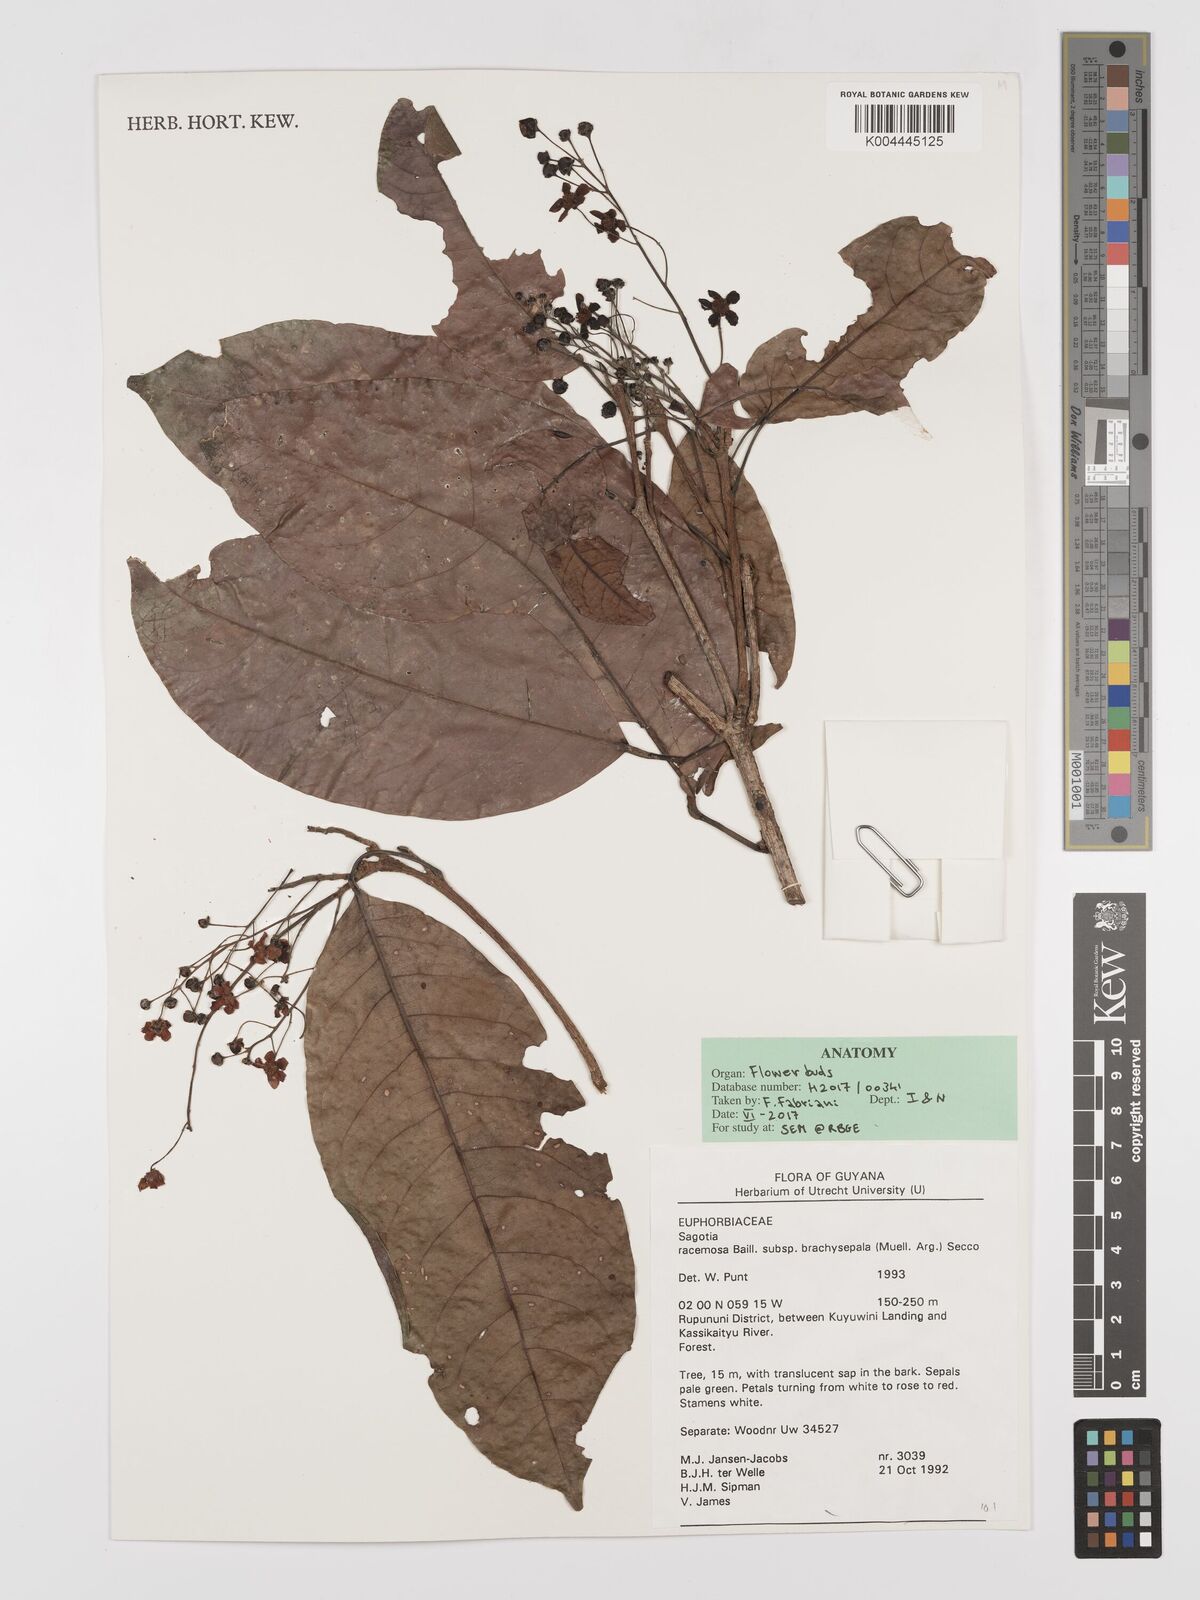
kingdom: Plantae
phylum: Tracheophyta
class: Magnoliopsida
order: Malpighiales
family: Euphorbiaceae
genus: Sagotia
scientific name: Sagotia racemosa
